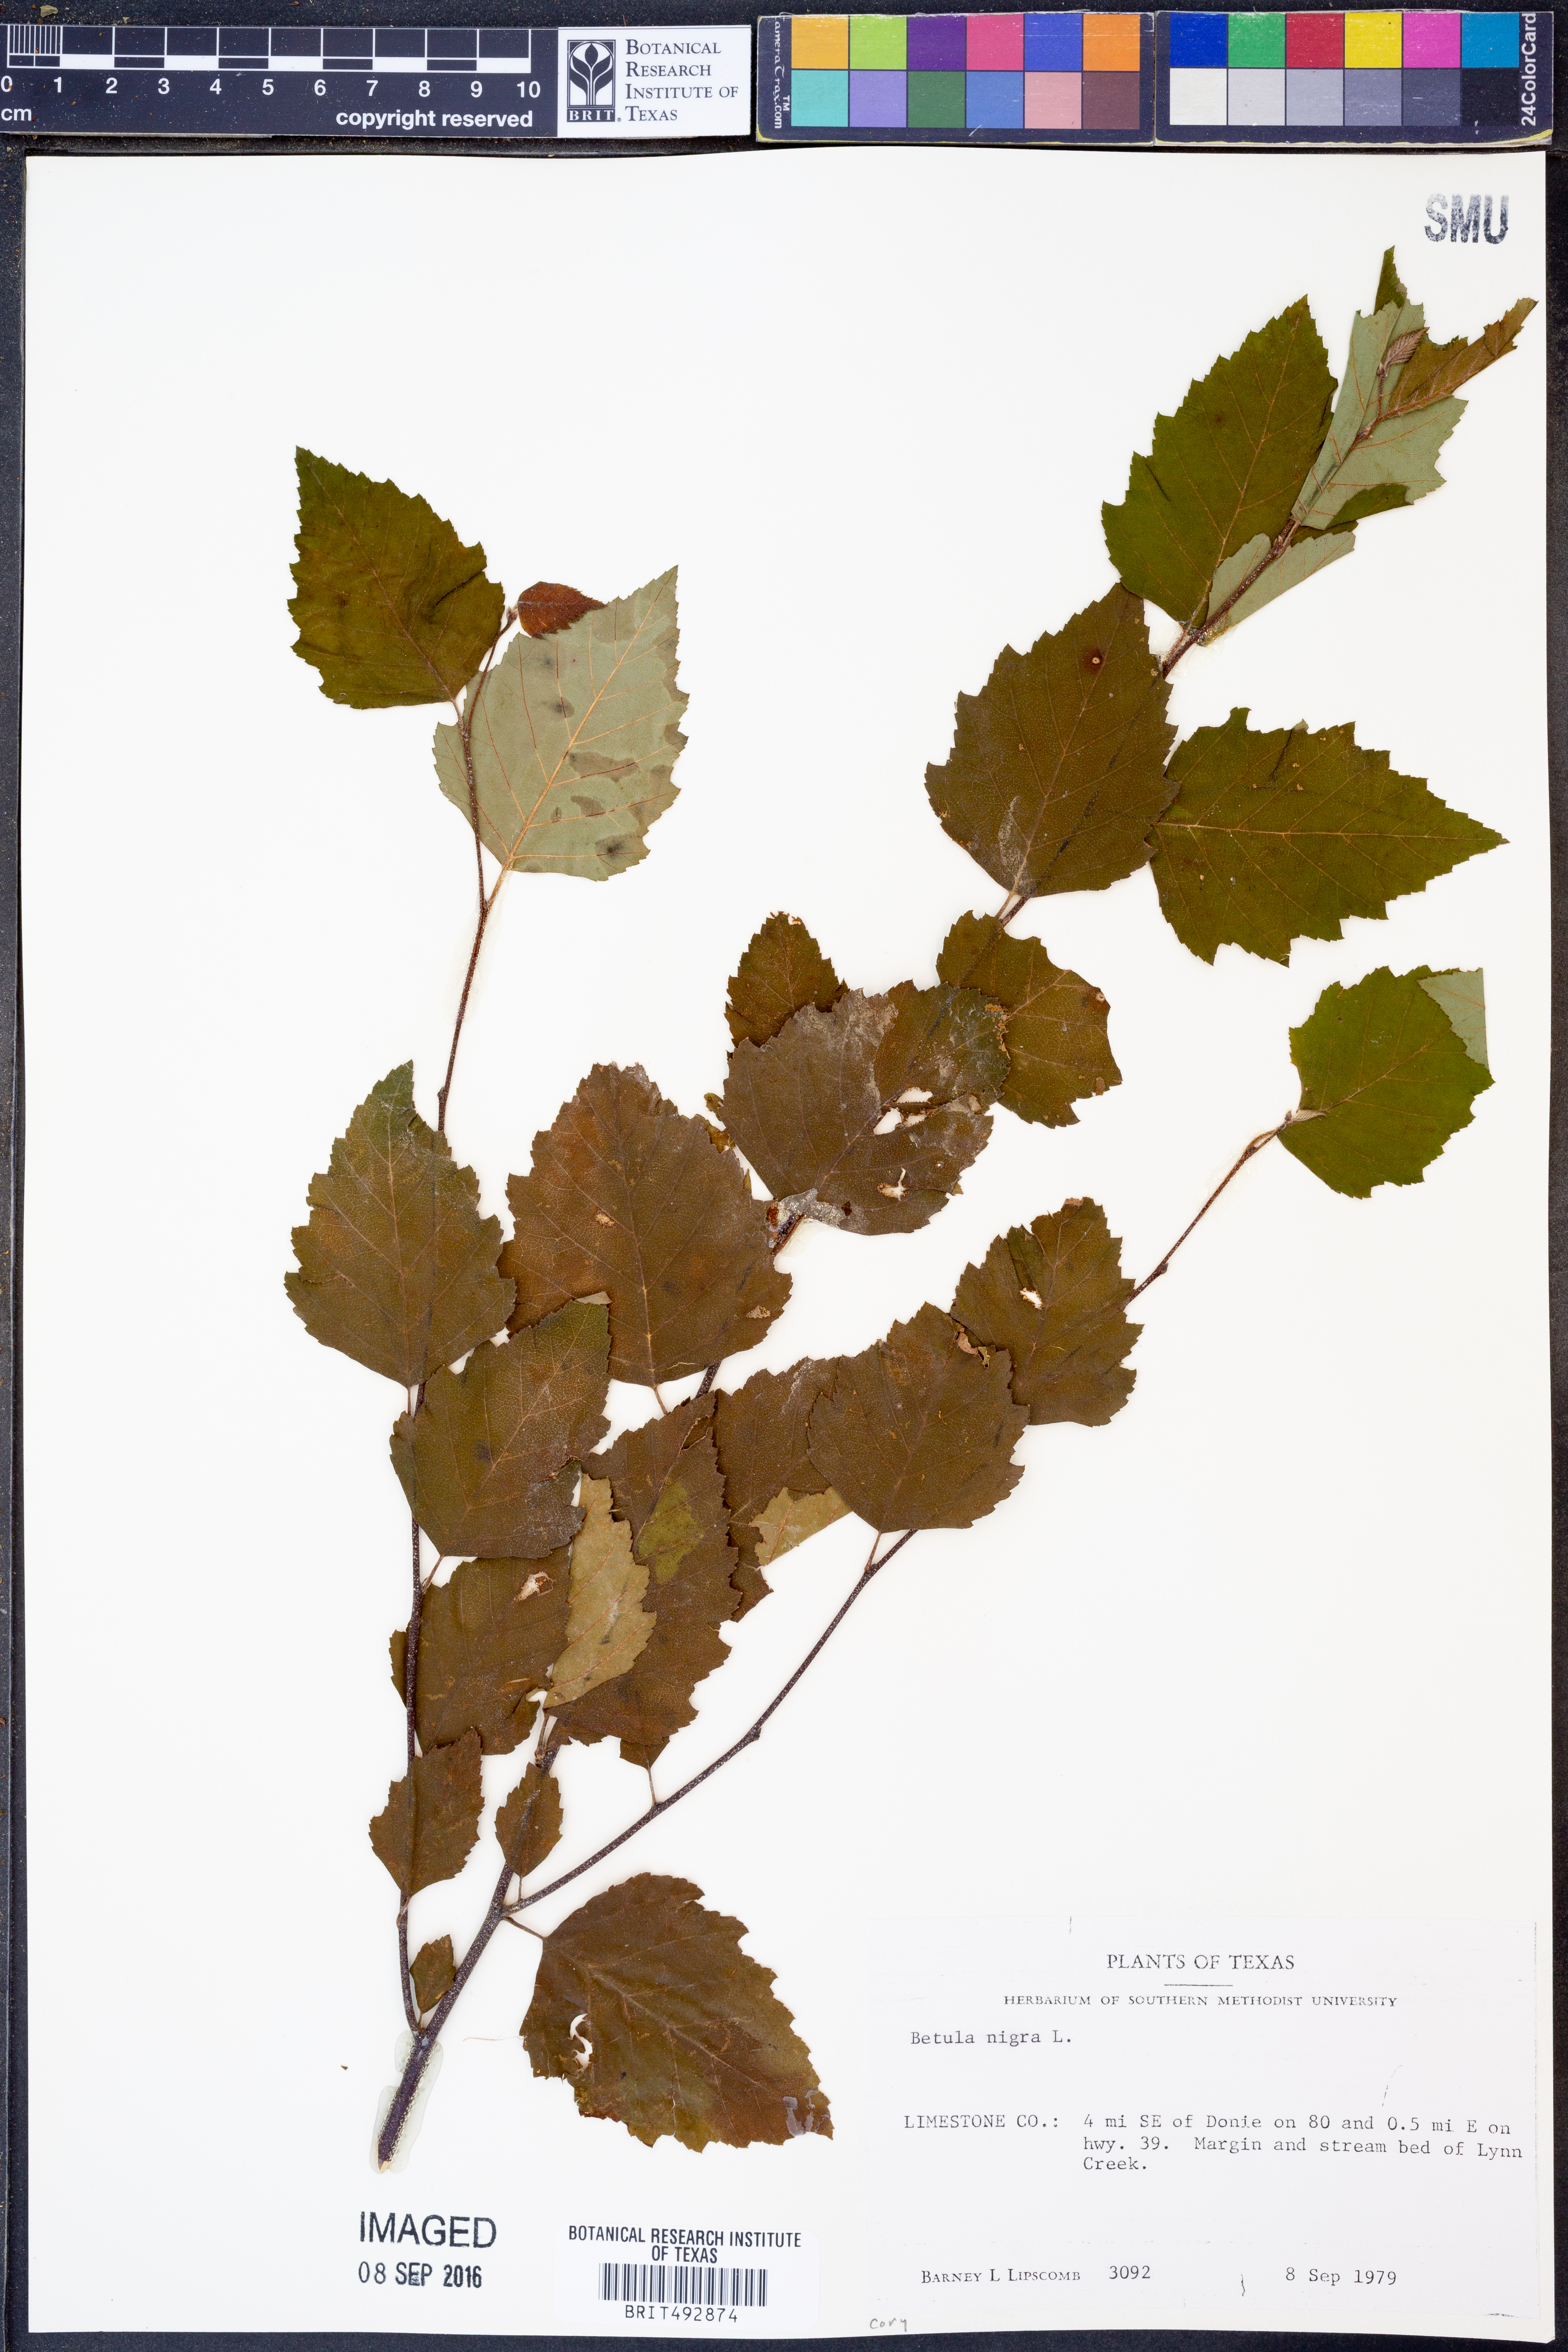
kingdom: Plantae
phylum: Tracheophyta
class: Magnoliopsida
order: Fagales
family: Betulaceae
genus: Betula
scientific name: Betula nigra
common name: Black birch
